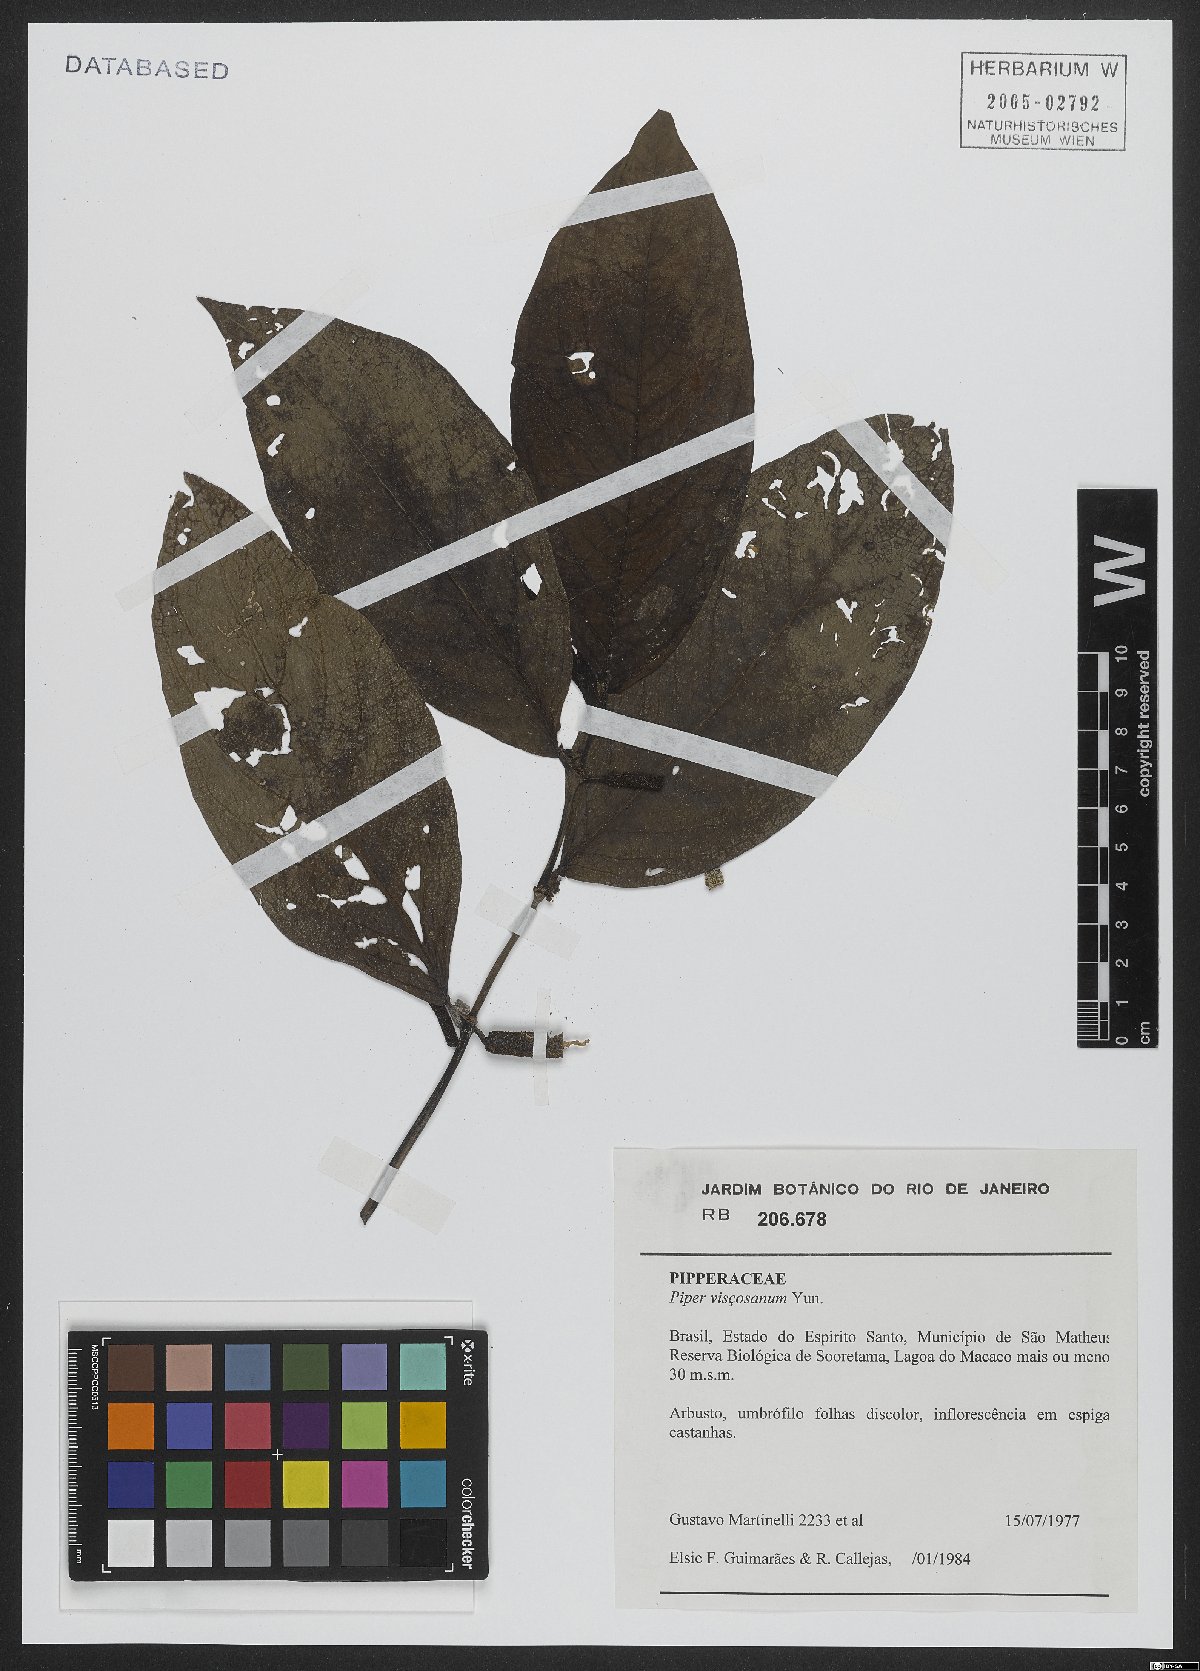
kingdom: Plantae
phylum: Tracheophyta
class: Magnoliopsida
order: Piperales
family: Piperaceae
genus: Piper
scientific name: Piper vicosanum
